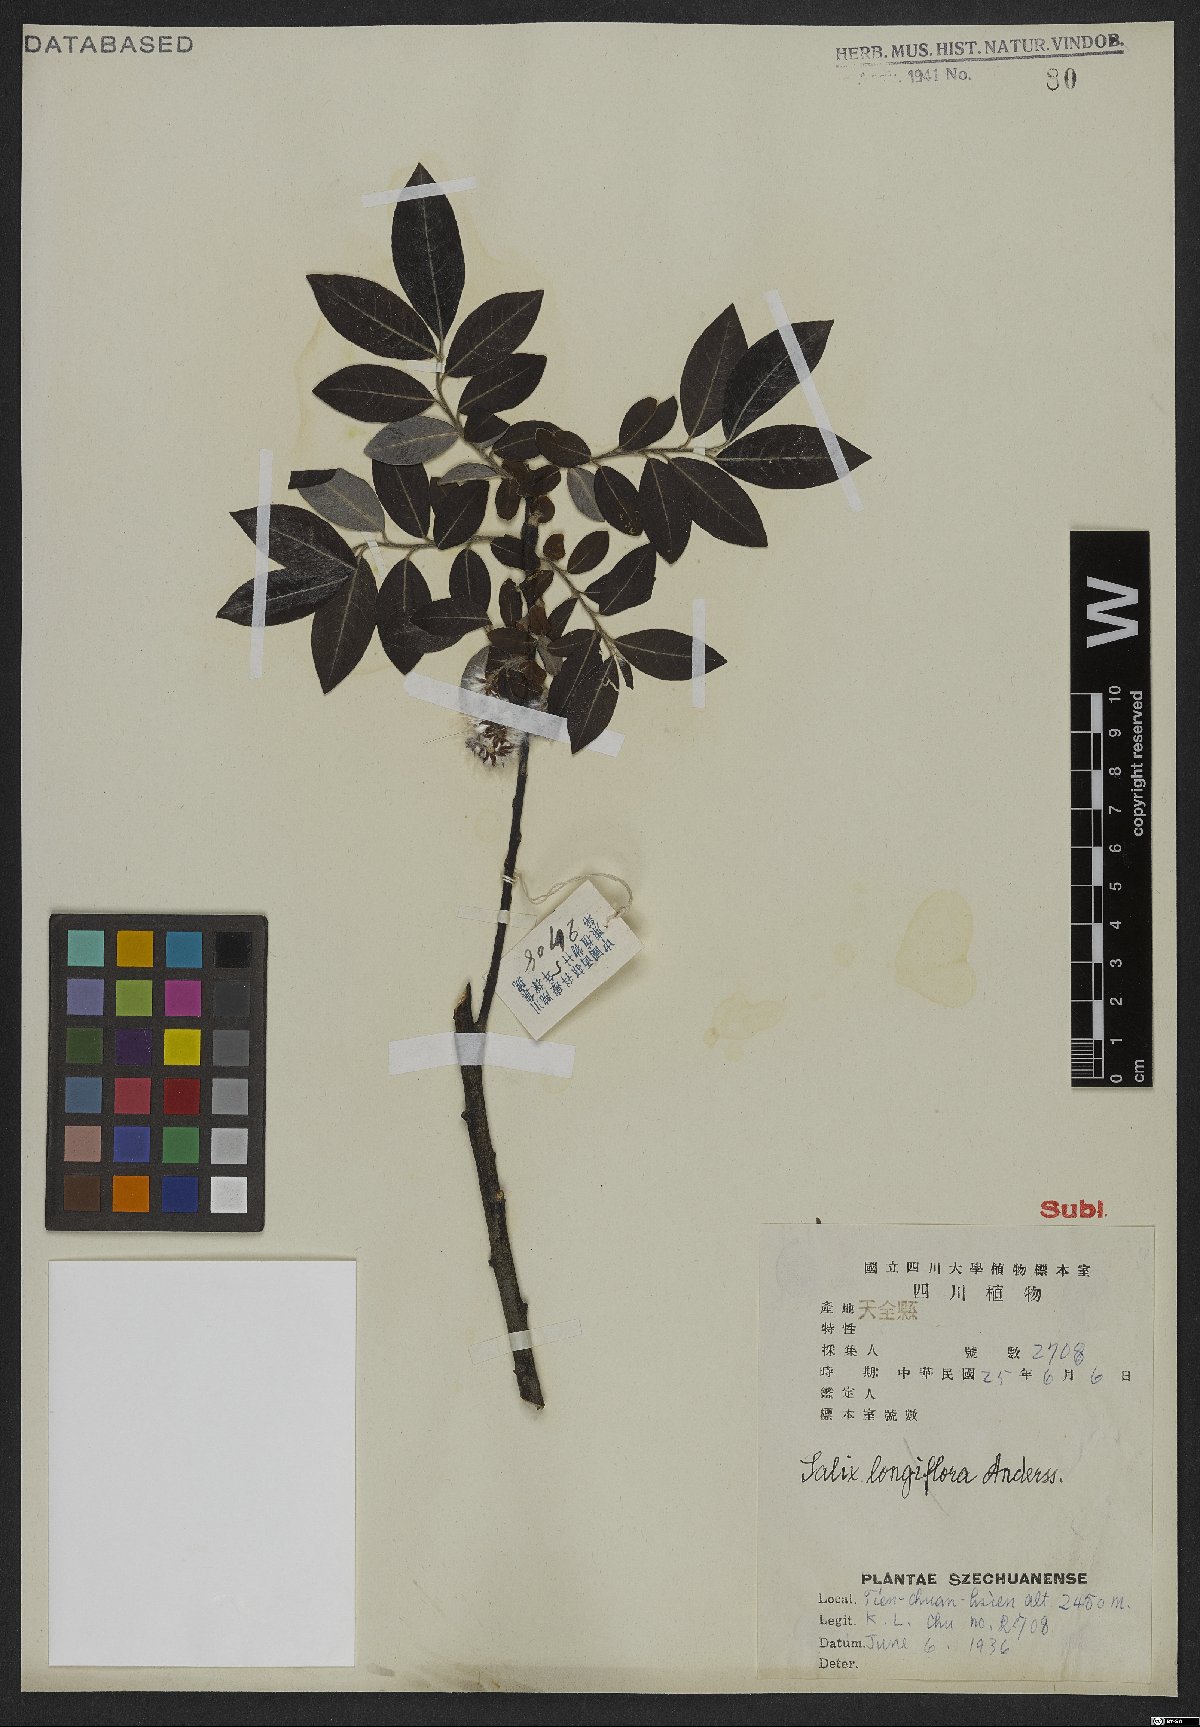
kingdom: Plantae
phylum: Tracheophyta
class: Magnoliopsida
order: Malpighiales
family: Salicaceae
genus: Salix
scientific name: Salix longiflora
